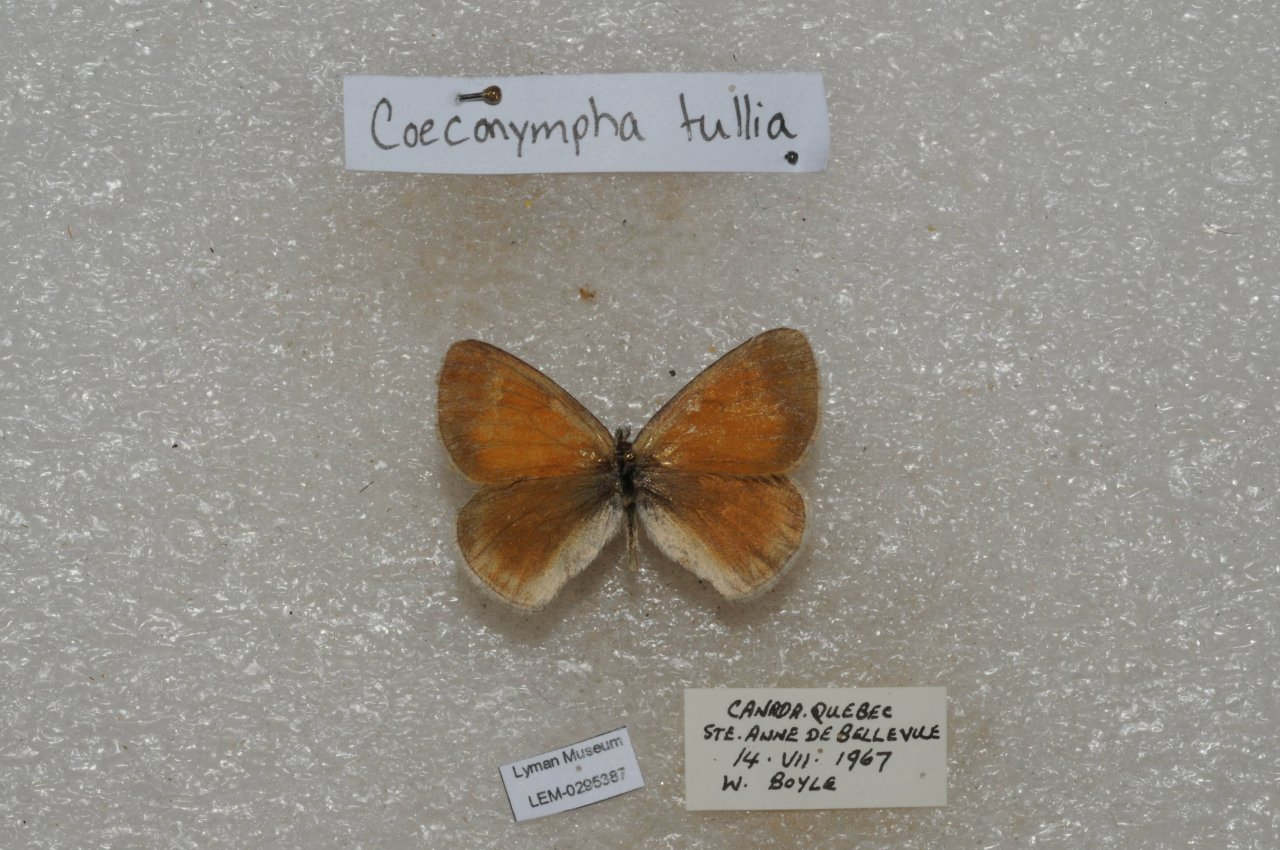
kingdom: Animalia
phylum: Arthropoda
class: Insecta
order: Lepidoptera
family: Nymphalidae
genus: Coenonympha
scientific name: Coenonympha tullia
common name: Large Heath
